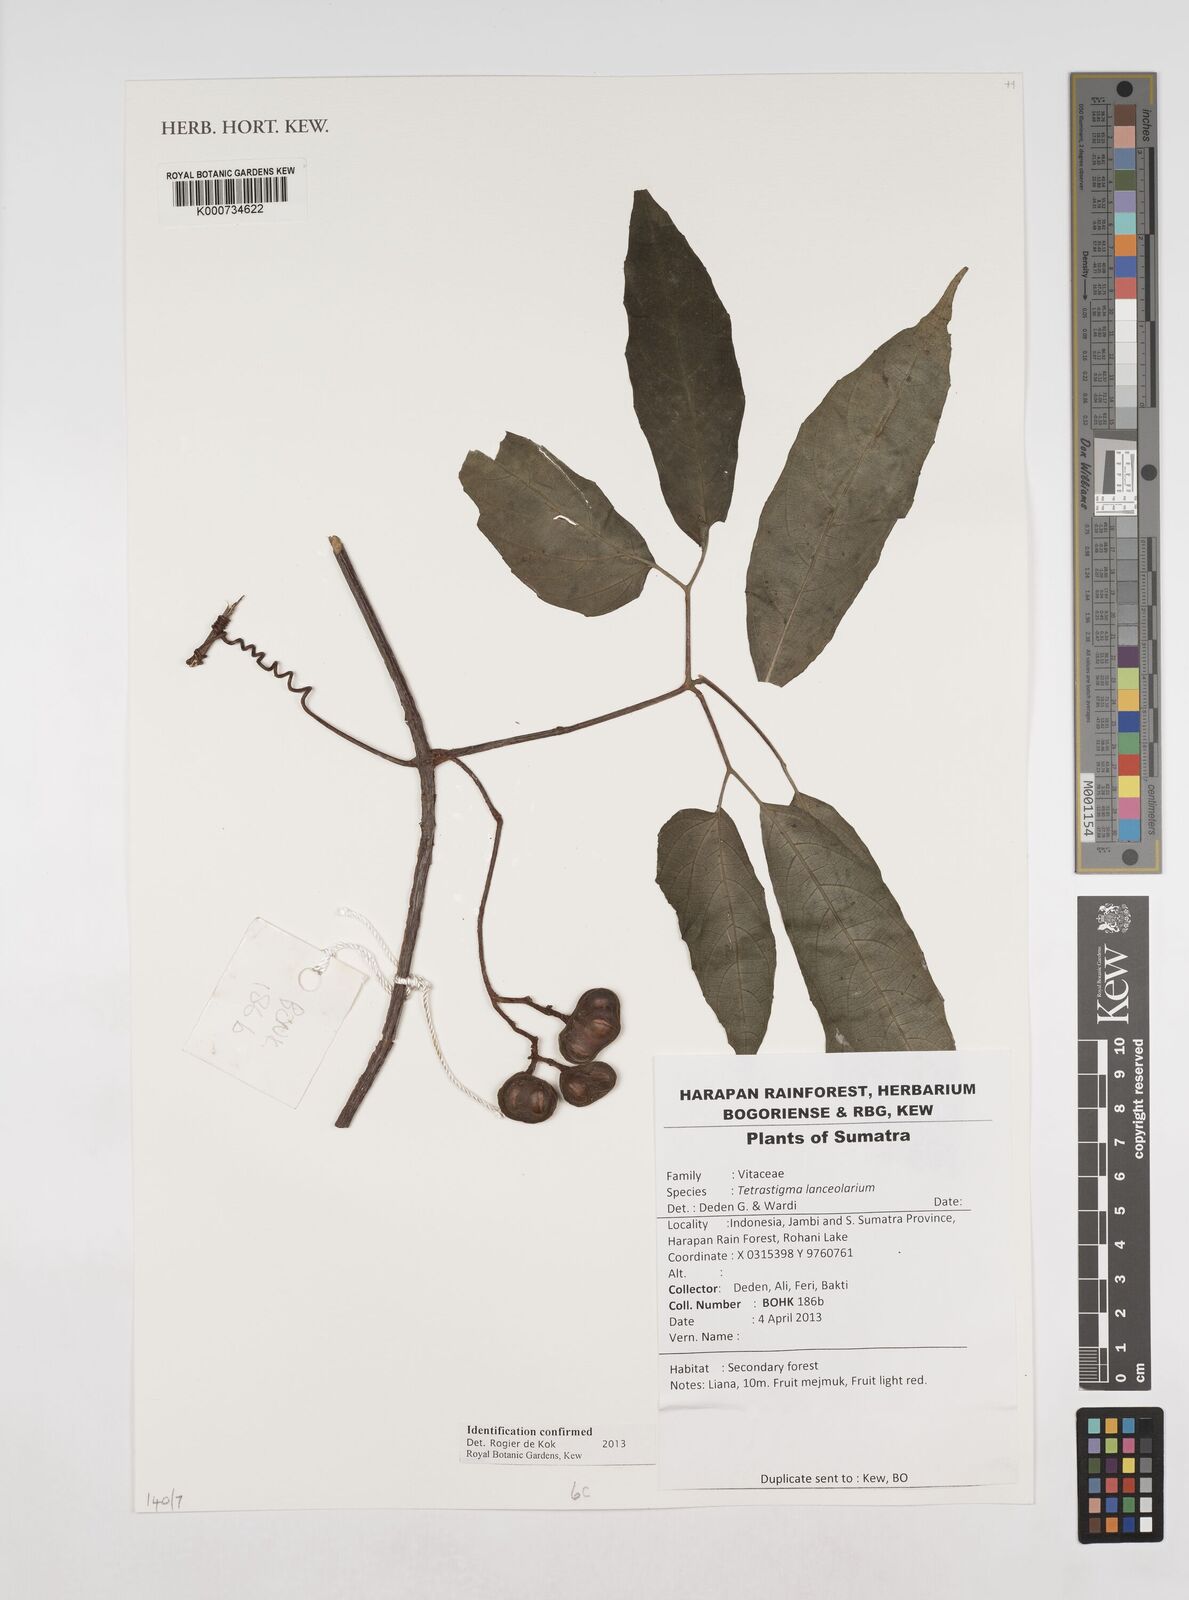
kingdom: Plantae
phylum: Tracheophyta
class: Magnoliopsida
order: Vitales
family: Vitaceae
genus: Tetrastigma
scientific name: Tetrastigma
